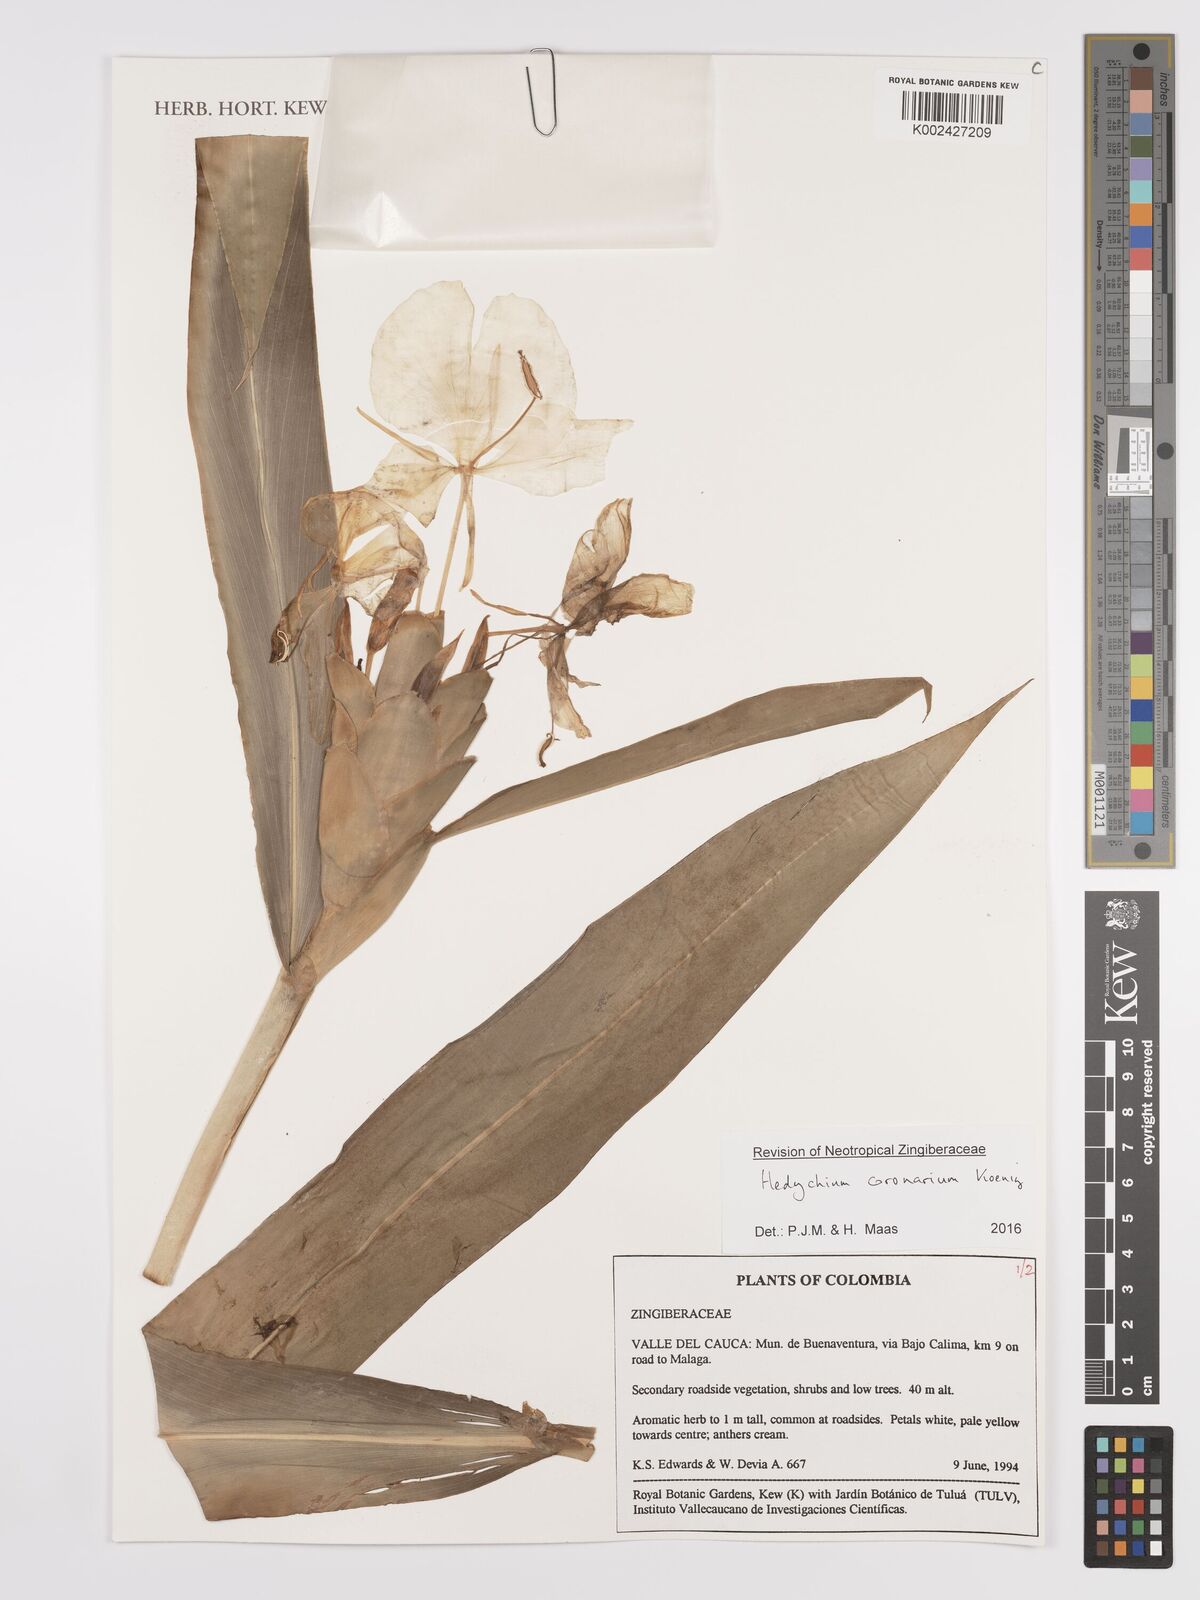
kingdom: Plantae
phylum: Tracheophyta
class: Liliopsida
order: Zingiberales
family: Zingiberaceae
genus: Hedychium
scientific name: Hedychium coronarium
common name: White garland-lily
